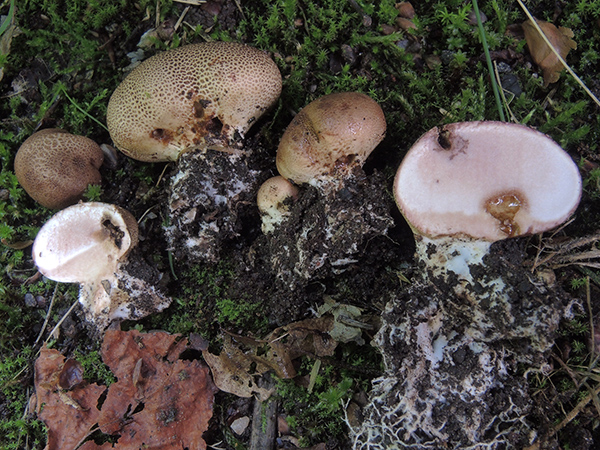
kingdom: Fungi
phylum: Basidiomycota
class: Agaricomycetes
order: Boletales
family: Sclerodermataceae
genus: Scleroderma
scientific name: Scleroderma areolatum
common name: plettet bruskbold
